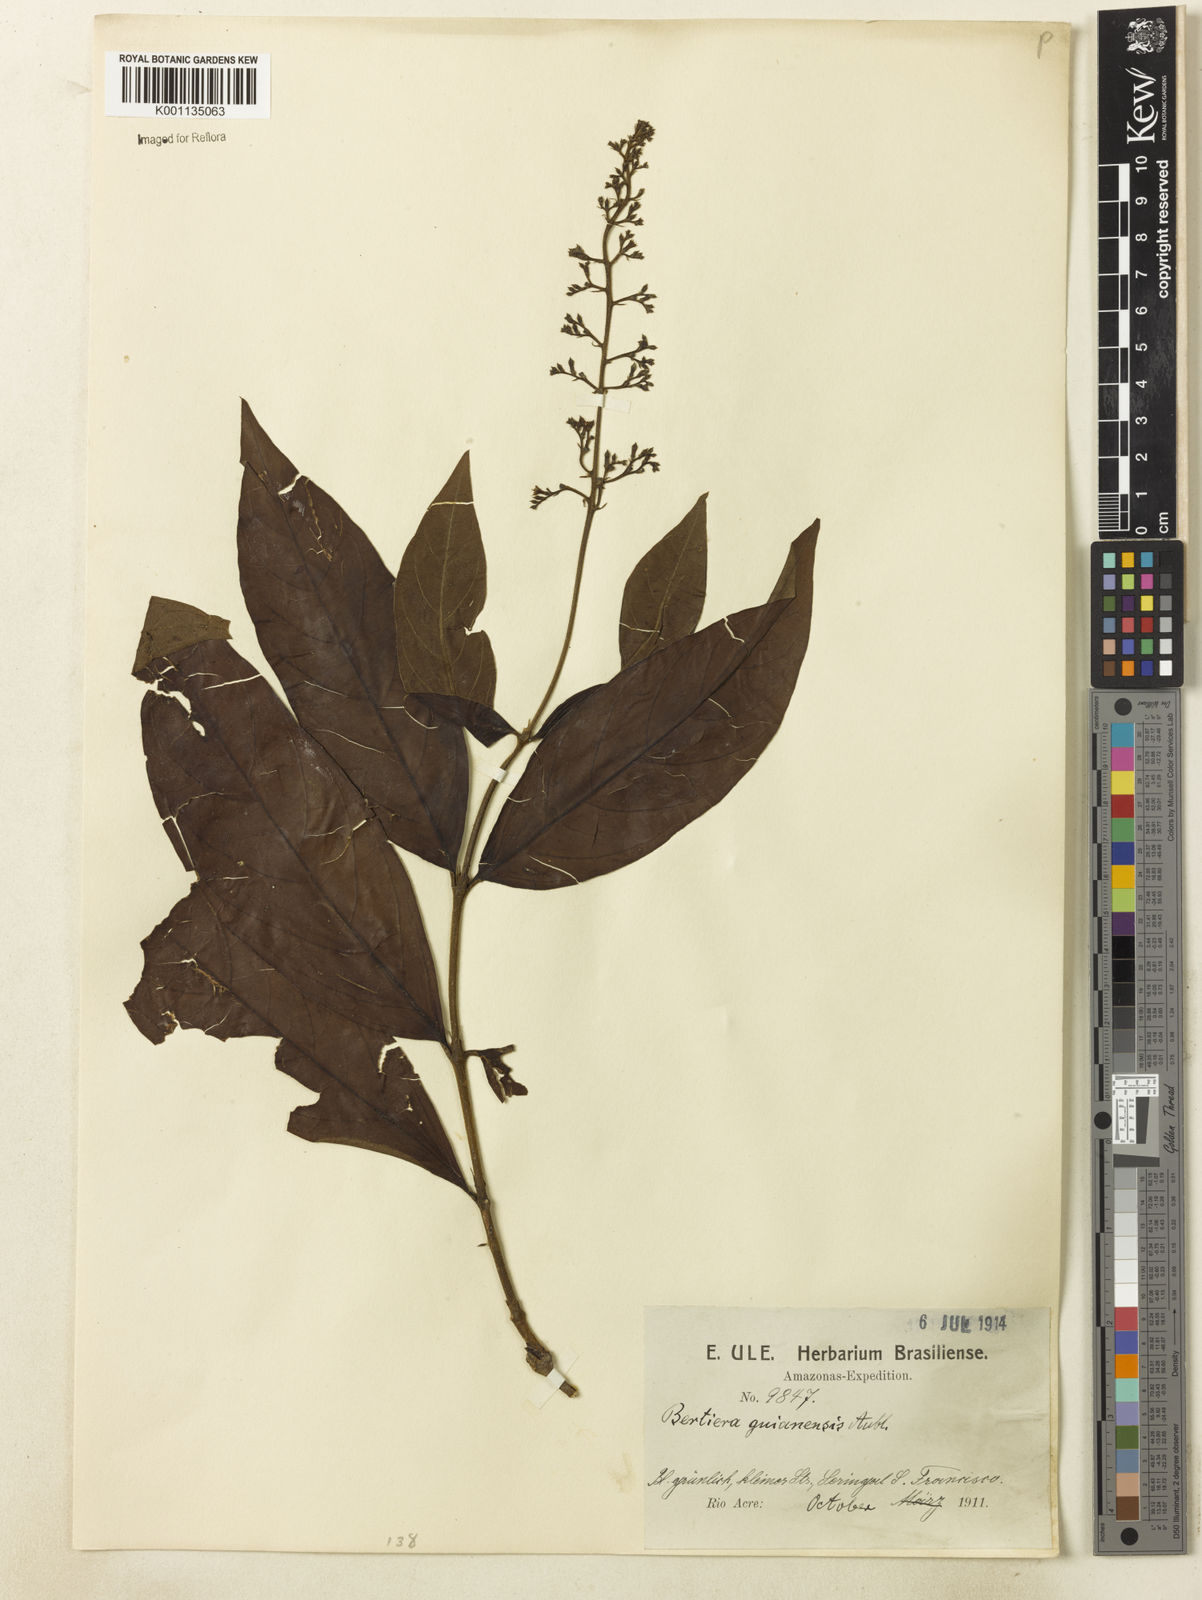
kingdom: Plantae
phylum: Tracheophyta
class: Magnoliopsida
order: Gentianales
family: Rubiaceae
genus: Bertiera
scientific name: Bertiera guianensis
